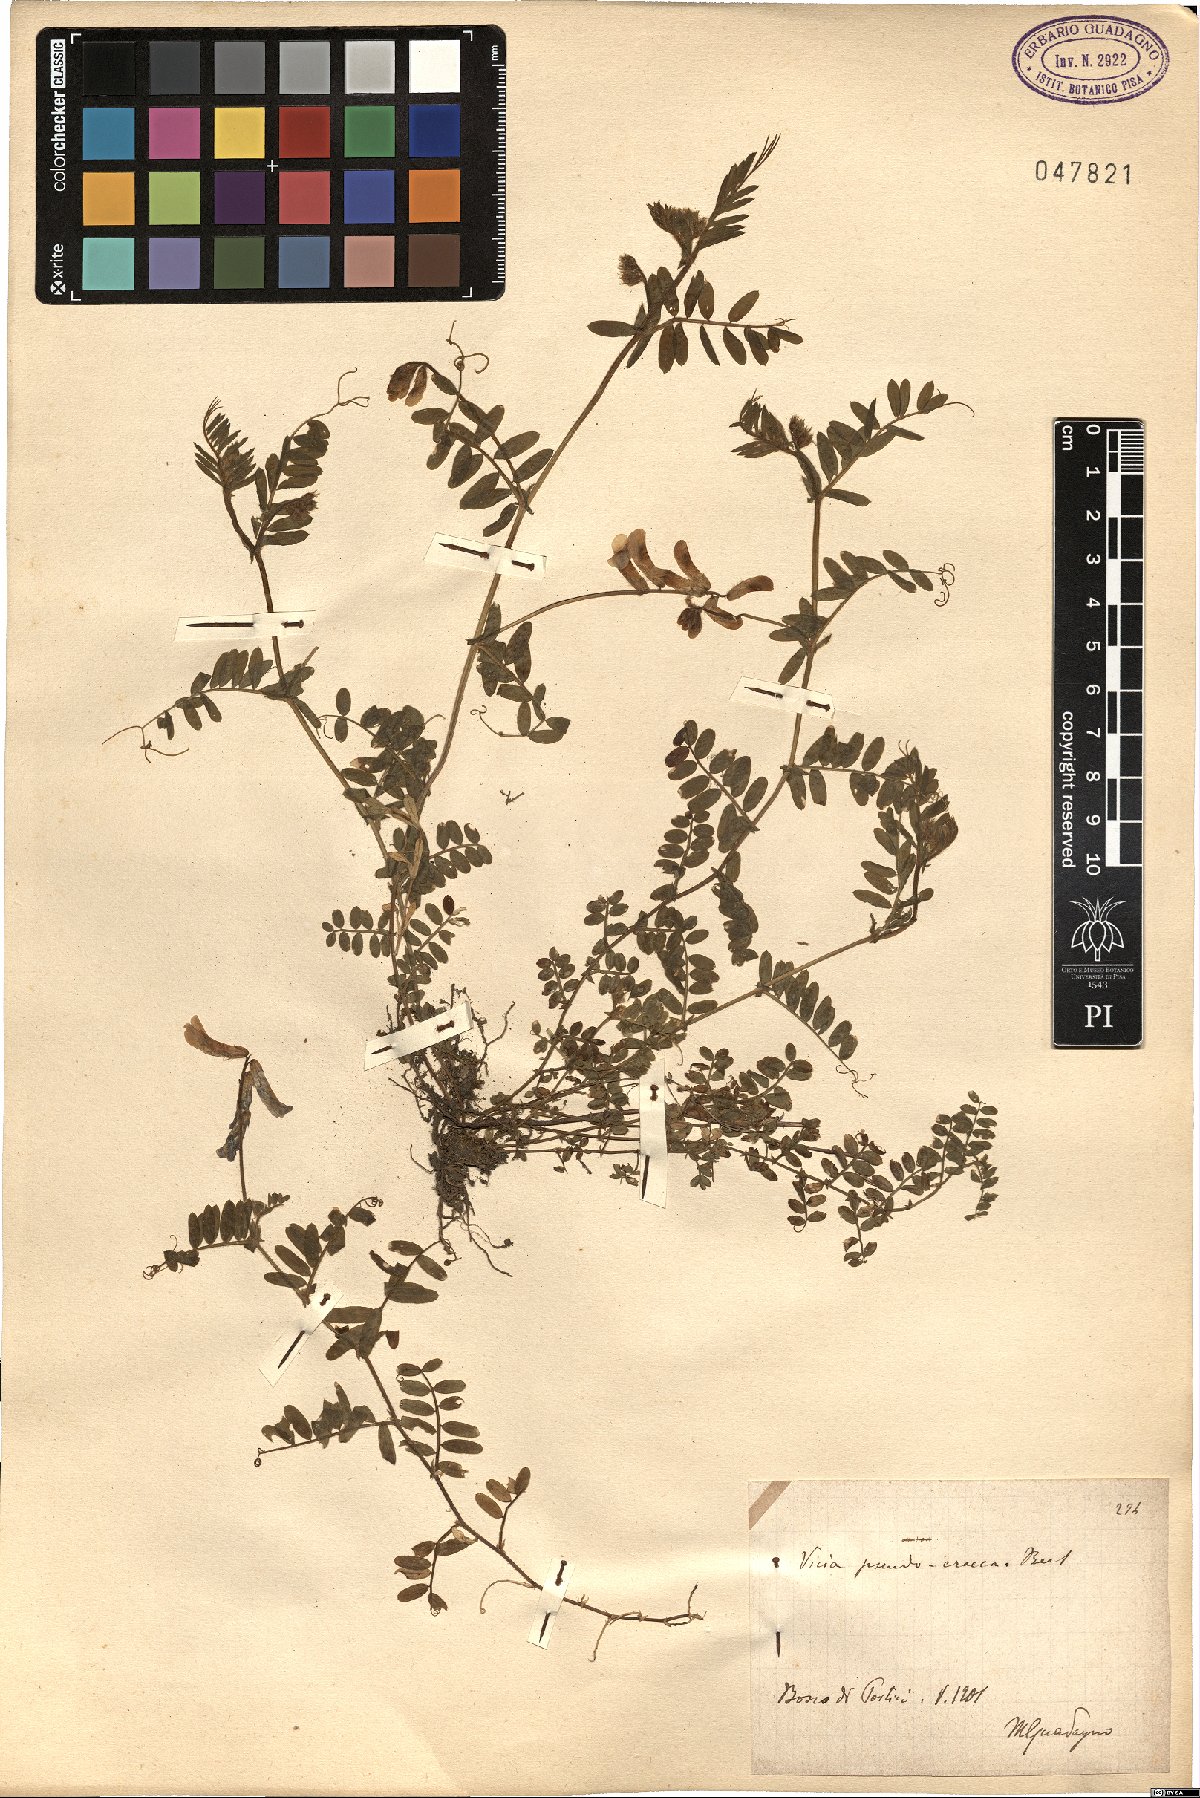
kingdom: Plantae
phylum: Tracheophyta
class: Magnoliopsida
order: Fabales
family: Fabaceae
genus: Vicia
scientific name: Vicia villosa
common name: Fodder vetch
